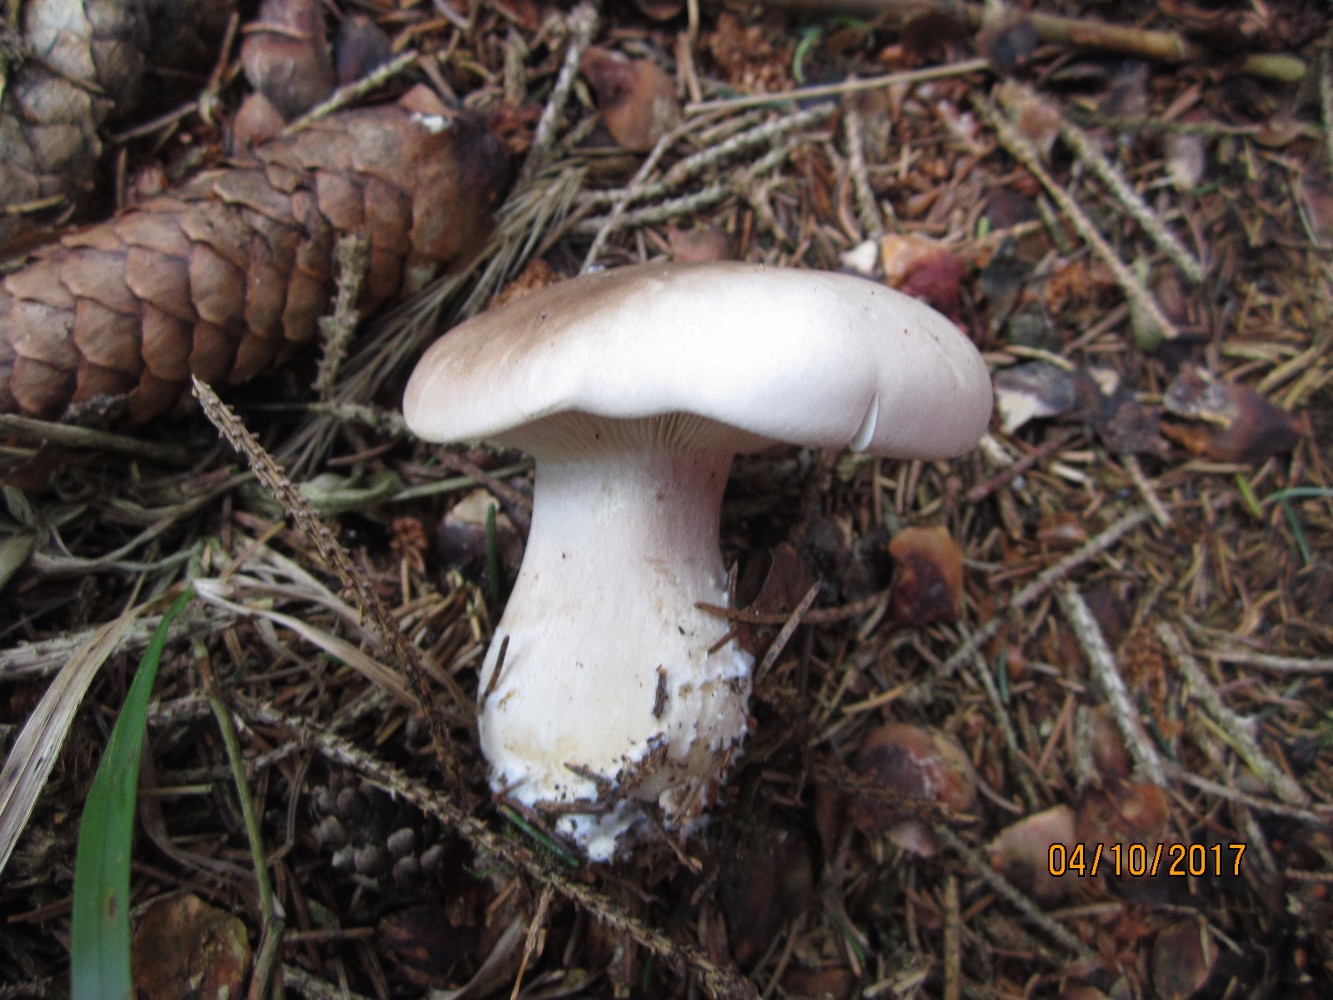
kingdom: Fungi
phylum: Basidiomycota
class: Agaricomycetes
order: Agaricales
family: Tricholomataceae
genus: Clitocybe
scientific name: Clitocybe nebularis
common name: tåge-tragthat
